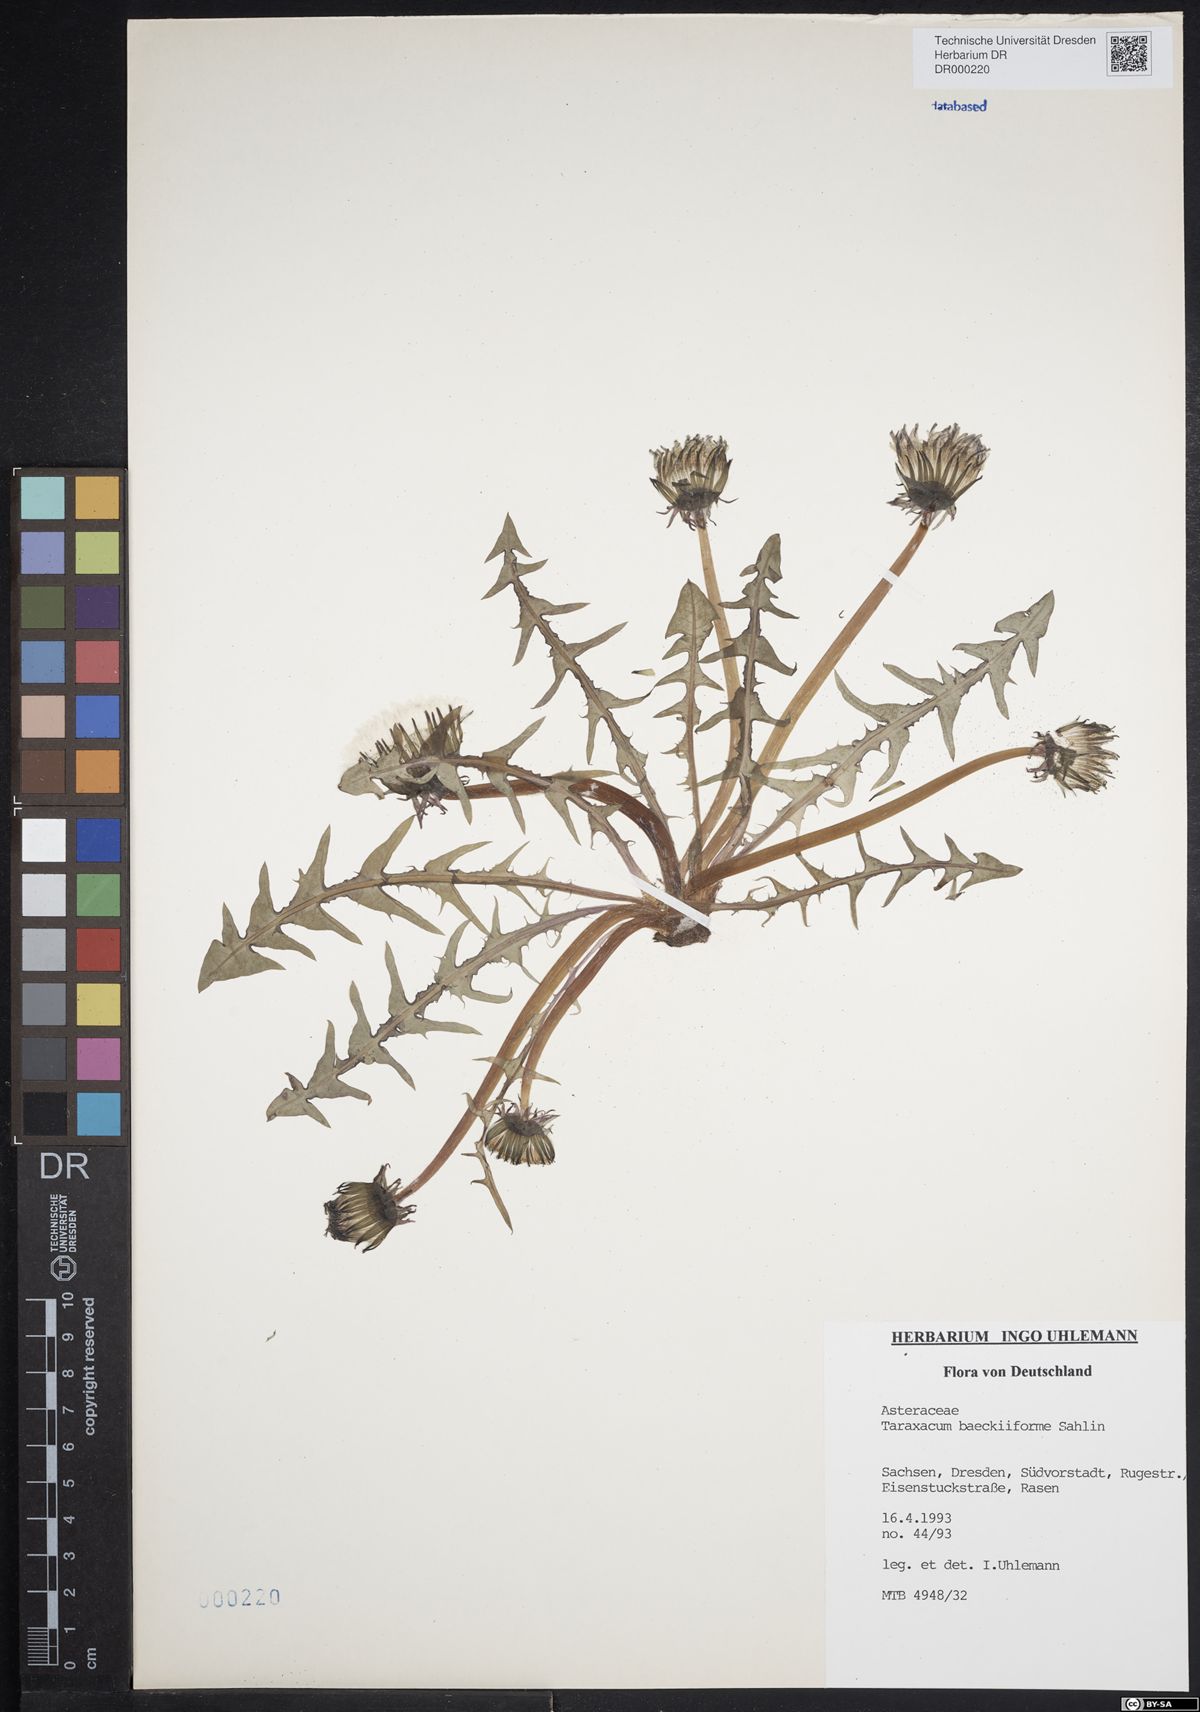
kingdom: Plantae
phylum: Tracheophyta
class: Magnoliopsida
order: Asterales
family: Asteraceae
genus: Taraxacum
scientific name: Taraxacum baeckiiforme
